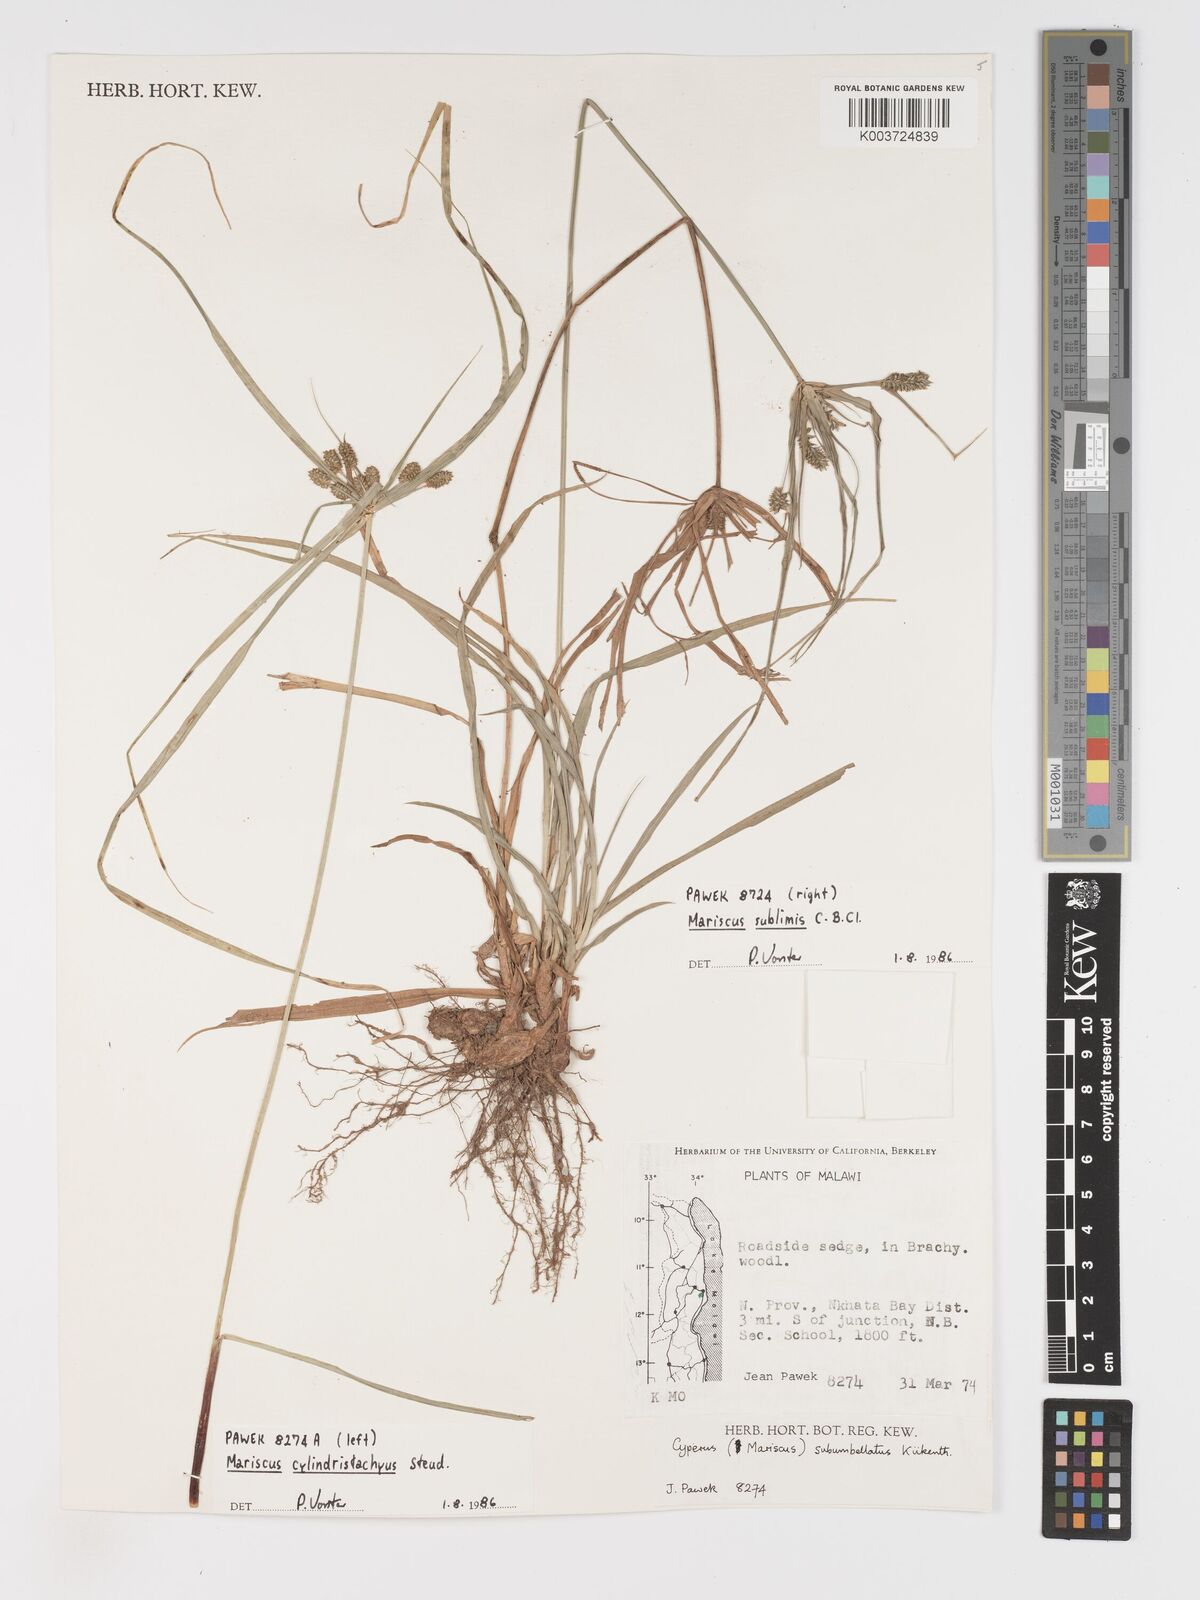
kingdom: Plantae
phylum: Tracheophyta
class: Liliopsida
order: Poales
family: Cyperaceae
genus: Cyperus
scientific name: Cyperus cyperoides
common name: Pacific island flat sedge
